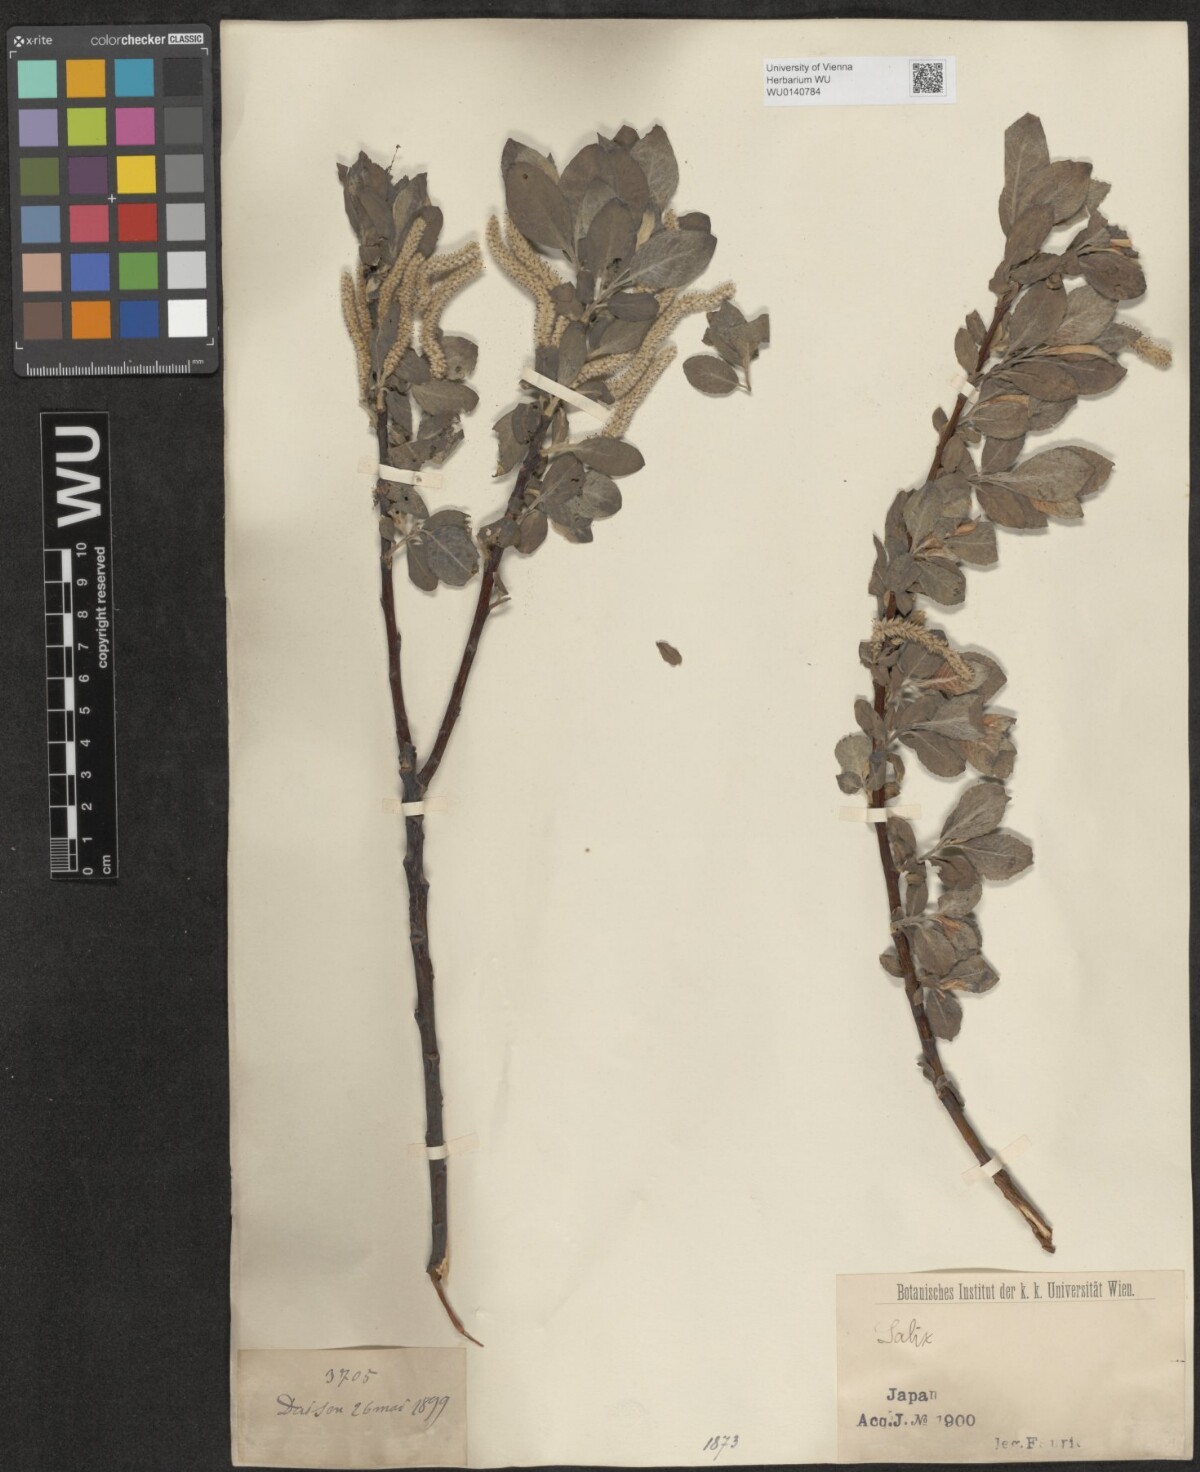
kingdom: Plantae
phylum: Tracheophyta
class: Magnoliopsida
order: Malpighiales
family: Salicaceae
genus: Salix
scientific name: Salix
